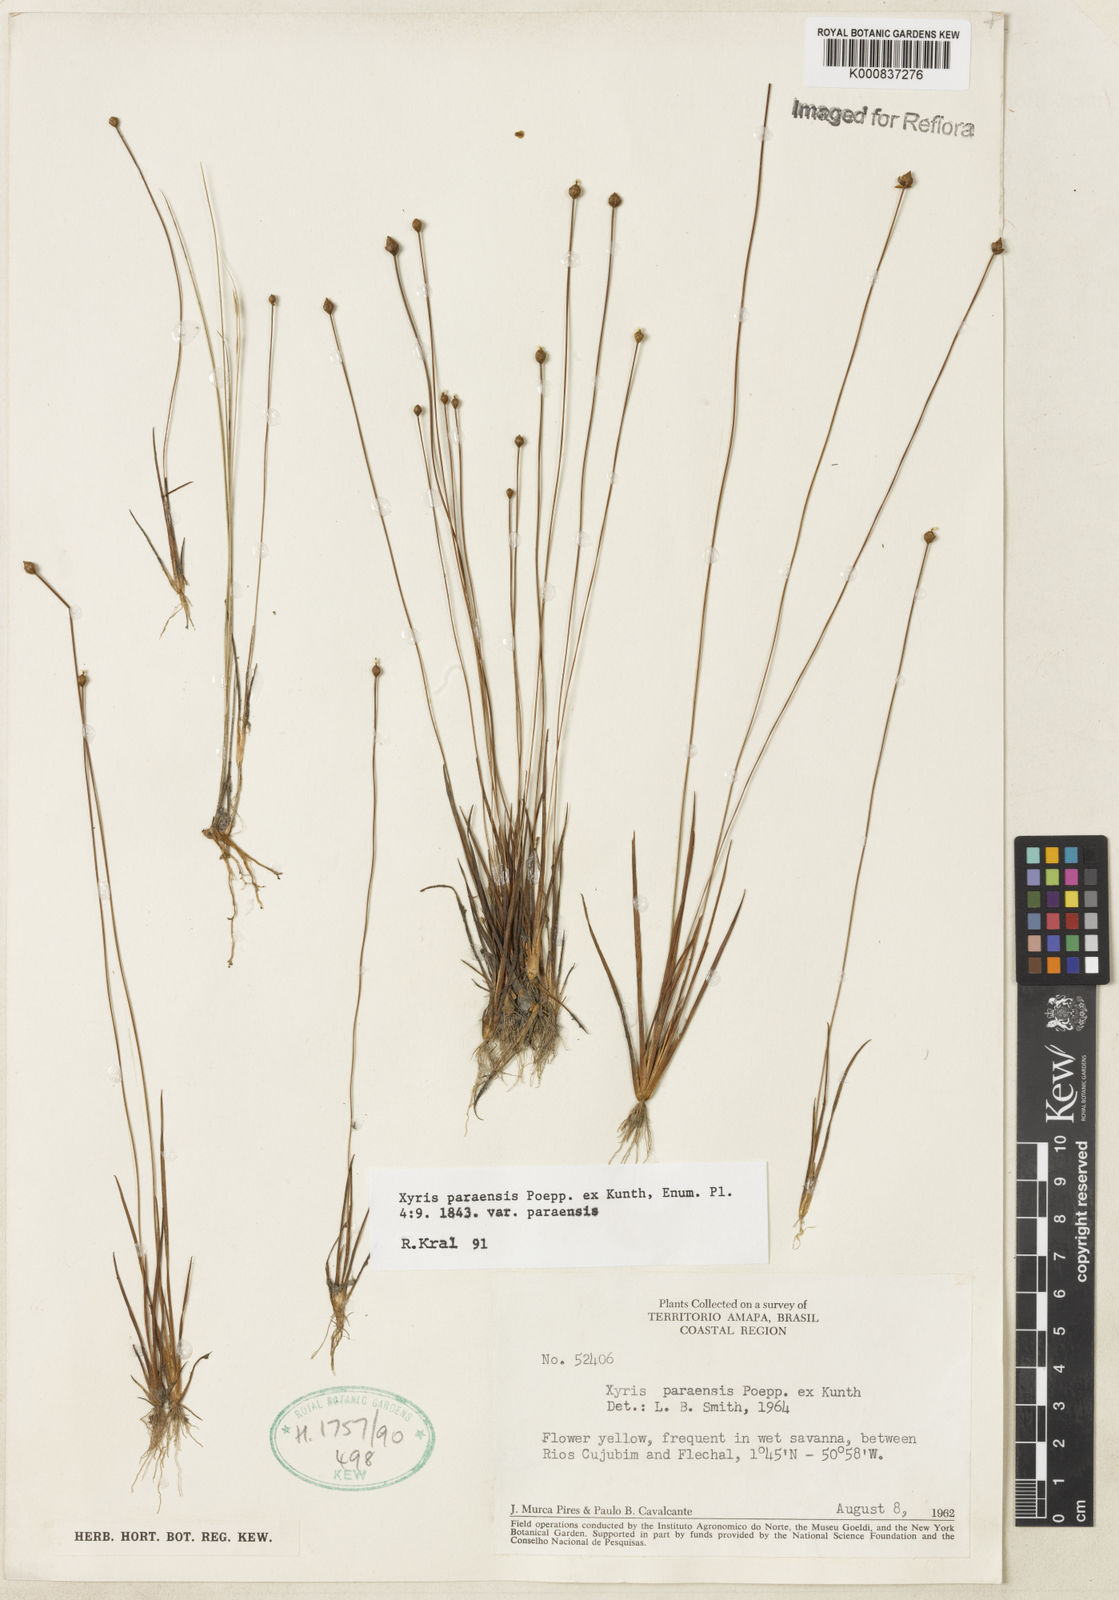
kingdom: Plantae
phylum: Tracheophyta
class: Liliopsida
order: Poales
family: Xyridaceae
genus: Xyris
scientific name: Xyris paraensis
